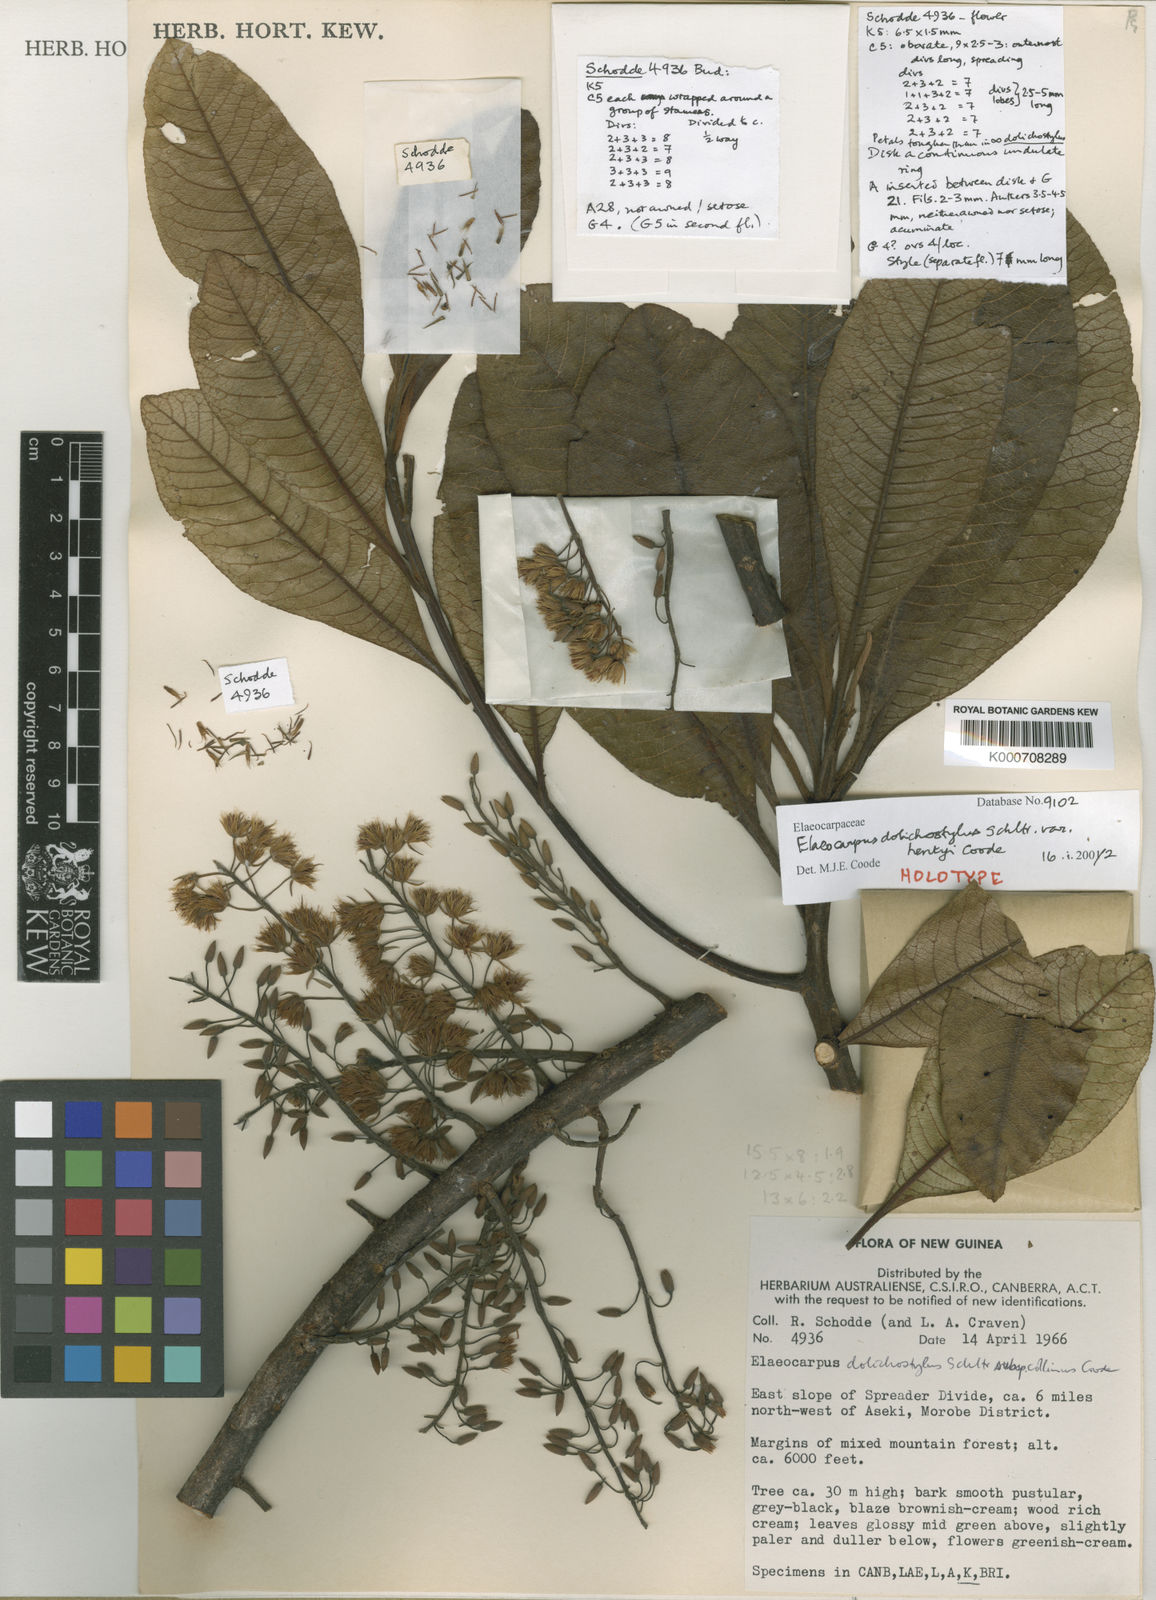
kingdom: Plantae
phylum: Tracheophyta
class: Magnoliopsida
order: Oxalidales
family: Elaeocarpaceae
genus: Elaeocarpus
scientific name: Elaeocarpus dolichostylus
